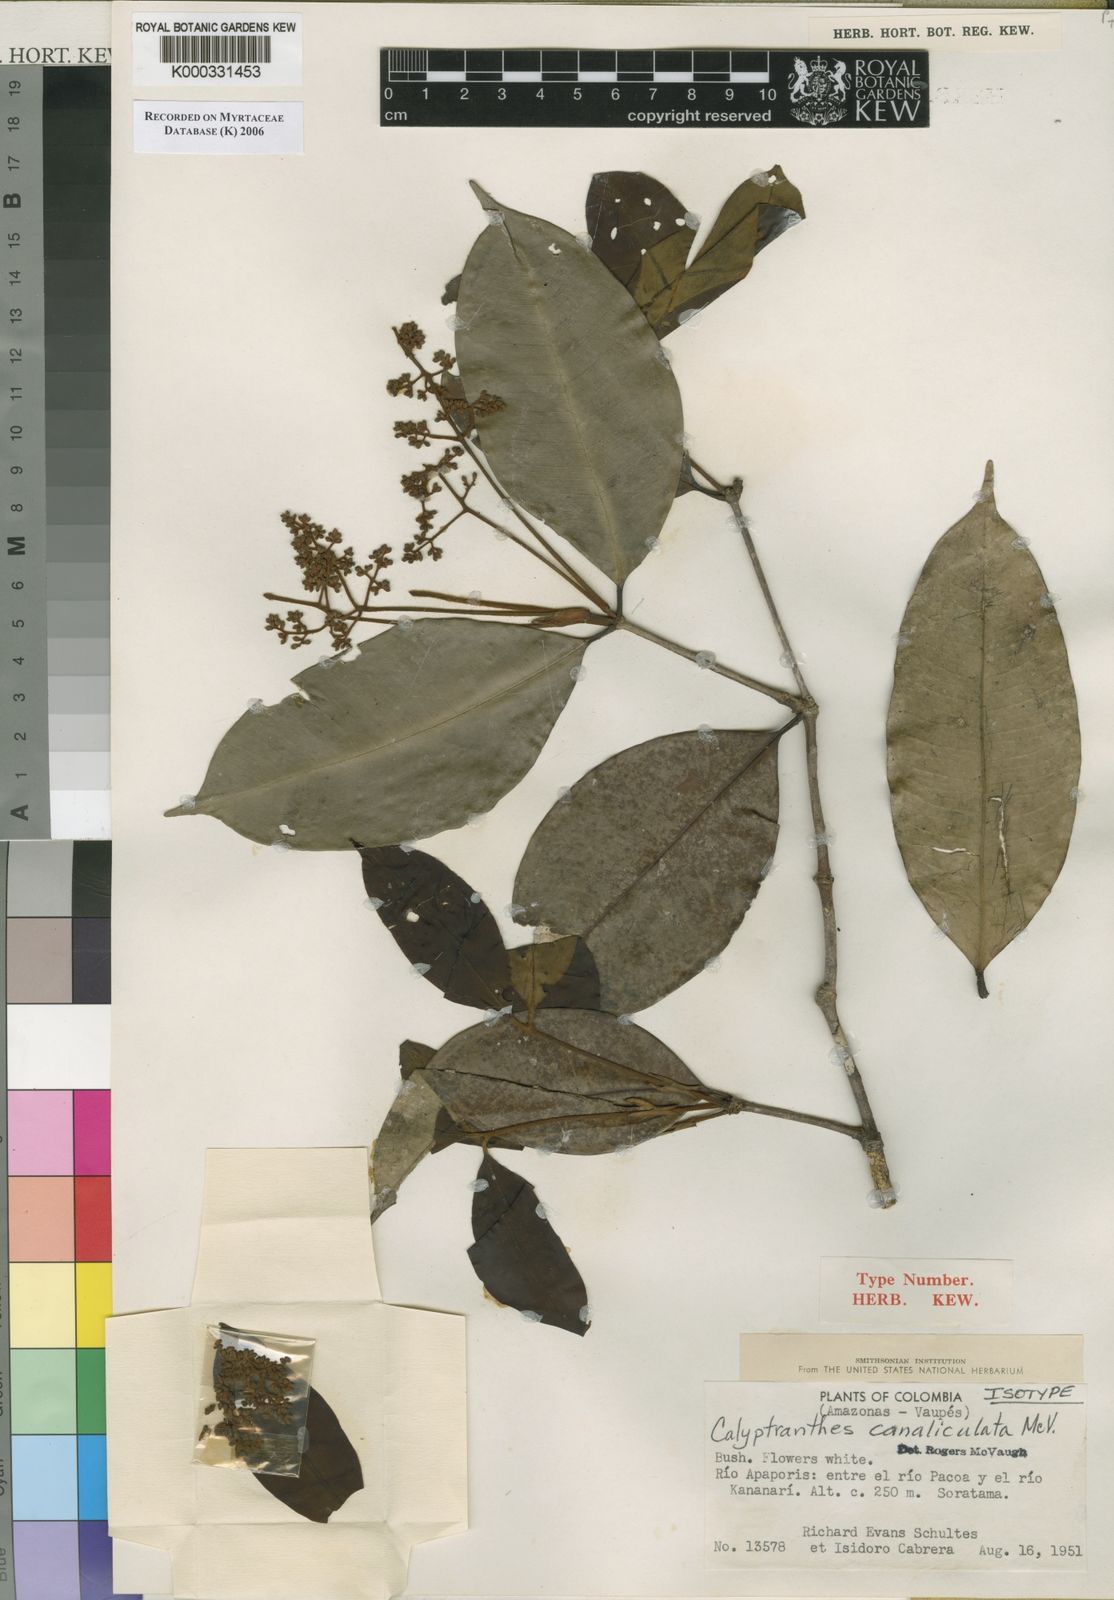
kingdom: Plantae
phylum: Tracheophyta
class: Magnoliopsida
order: Myrtales
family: Myrtaceae
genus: Myrcia
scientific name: Myrcia canaliculata
